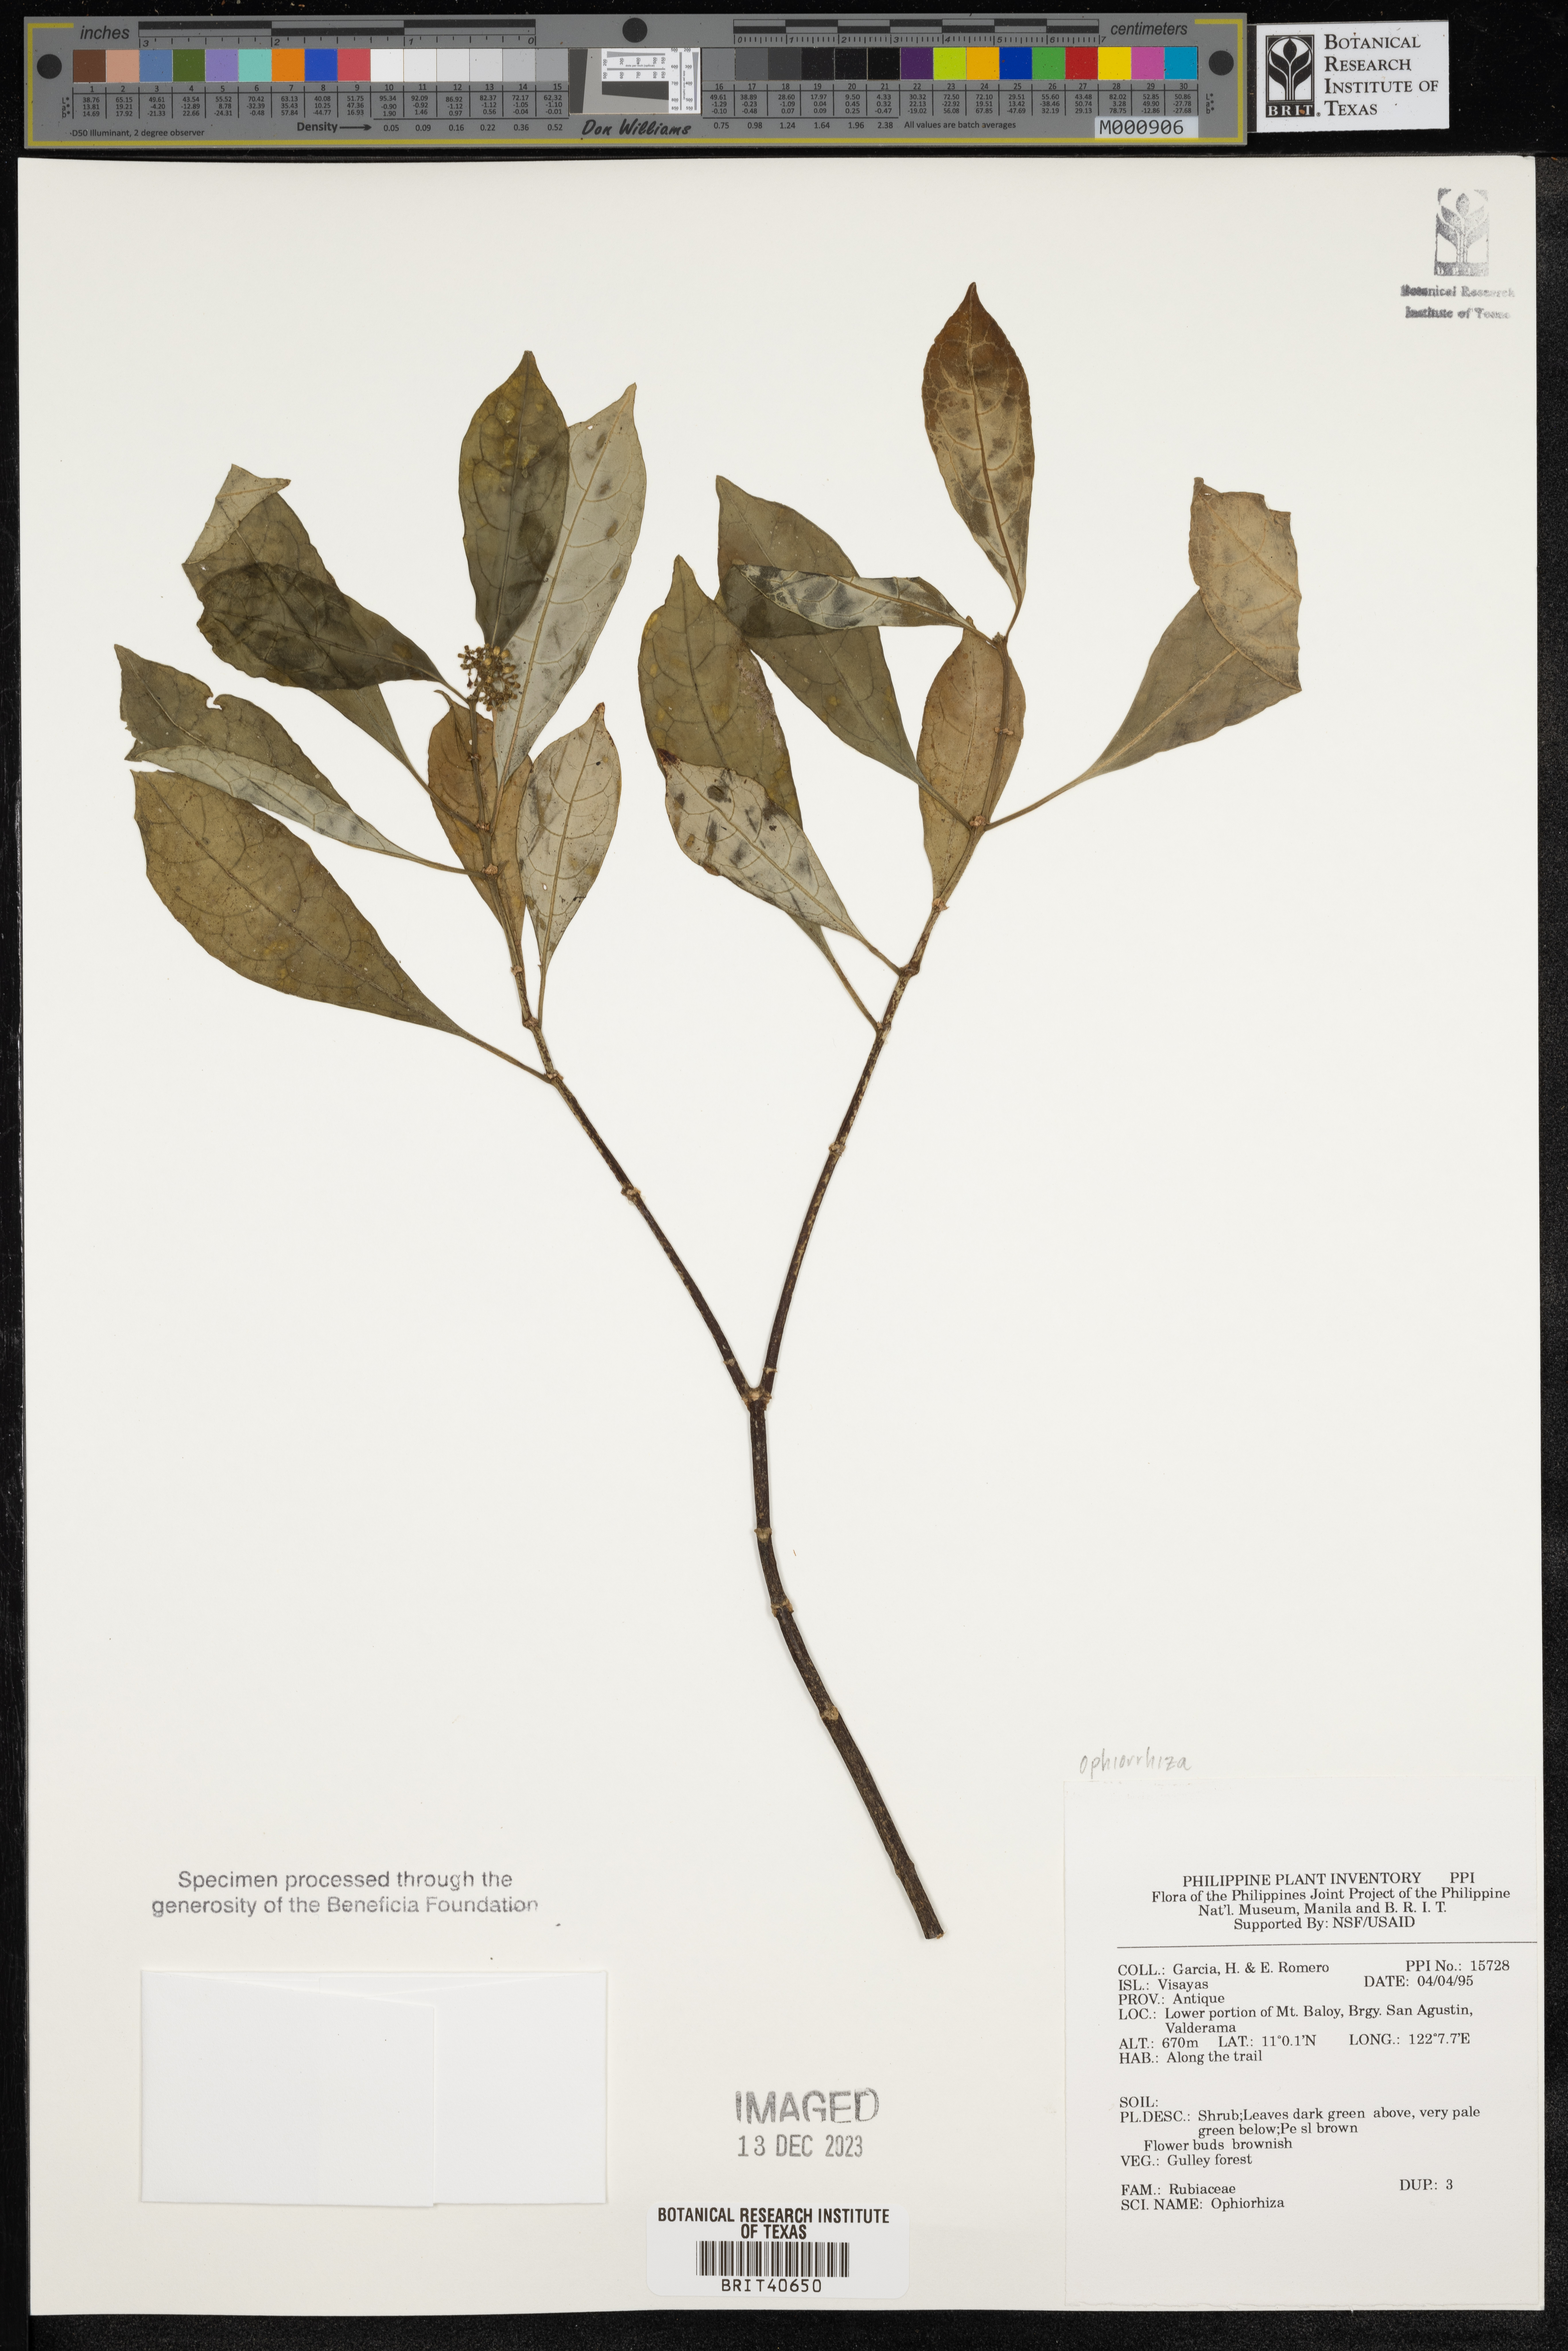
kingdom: Plantae
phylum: Tracheophyta
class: Magnoliopsida
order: Gentianales
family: Rubiaceae
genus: Ophiorrhiza
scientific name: Ophiorrhiza
